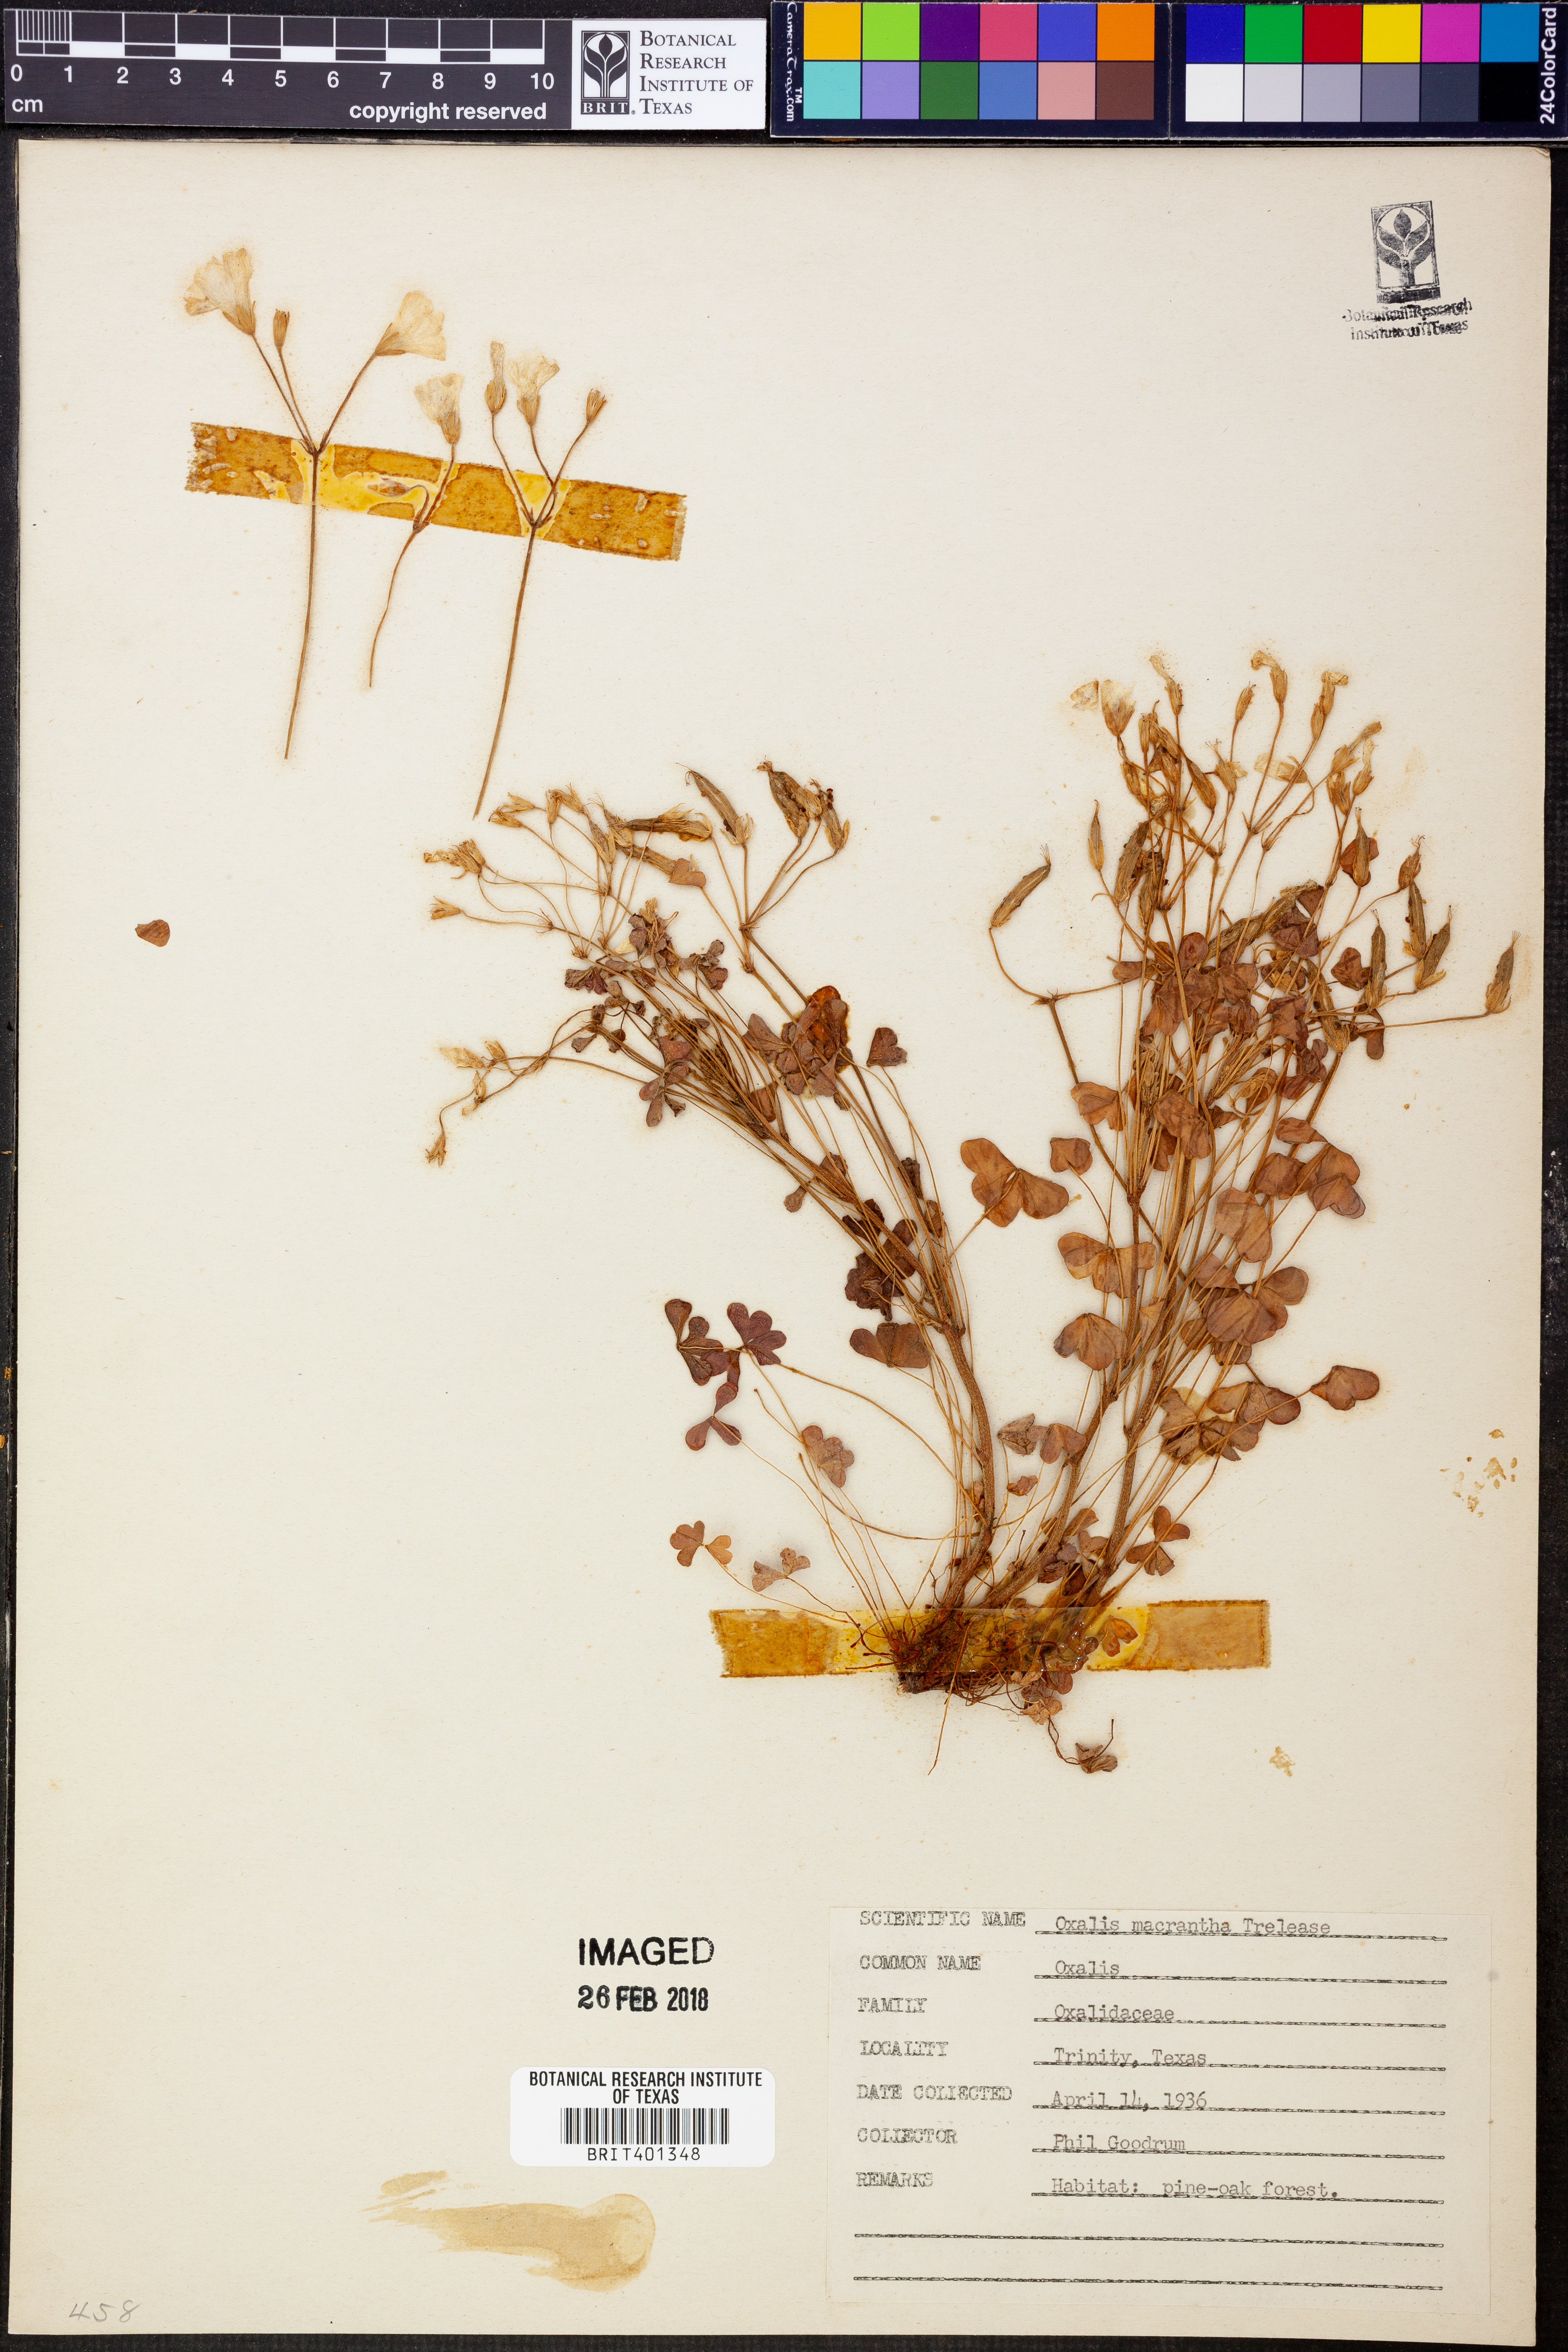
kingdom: Plantae
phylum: Tracheophyta
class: Magnoliopsida
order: Oxalidales
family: Oxalidaceae
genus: Oxalis
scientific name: Oxalis macrantha
